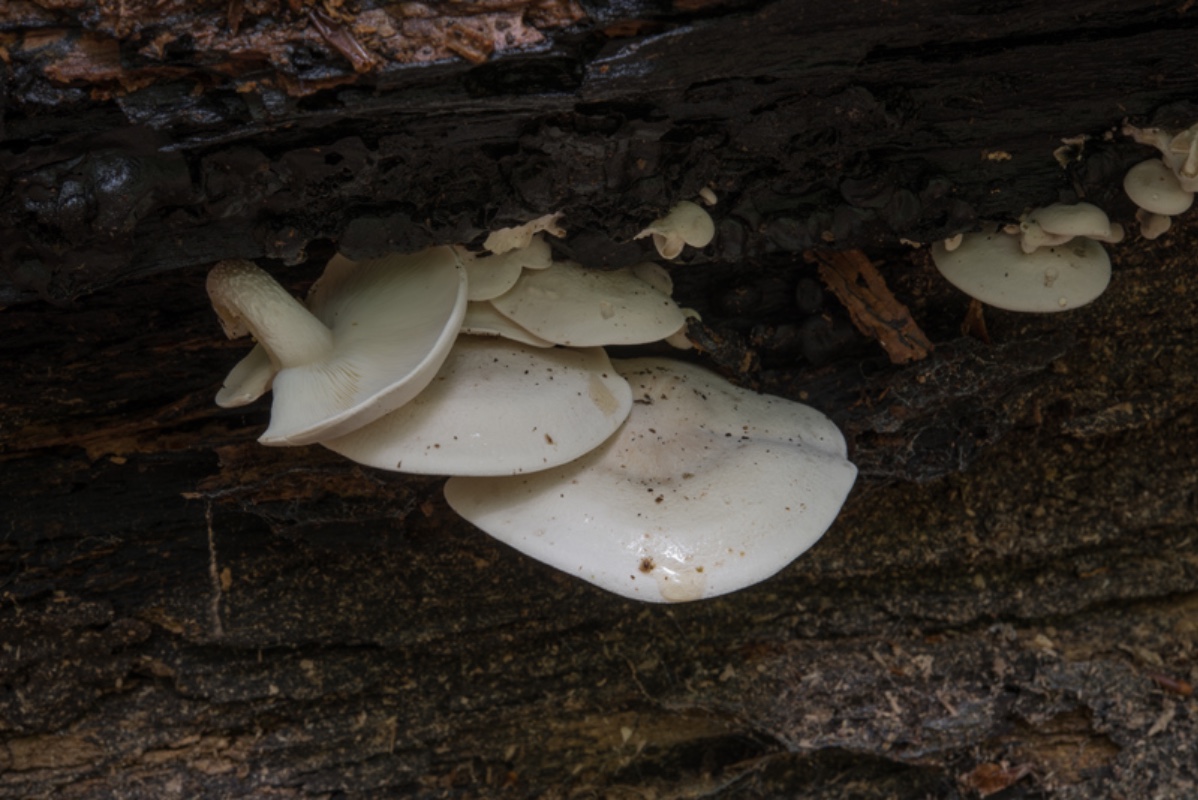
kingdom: Fungi
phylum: Basidiomycota
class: Agaricomycetes
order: Agaricales
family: Lyophyllaceae
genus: Ossicaulis
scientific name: Ossicaulis lignatilis
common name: hvidlig vedtragthat
